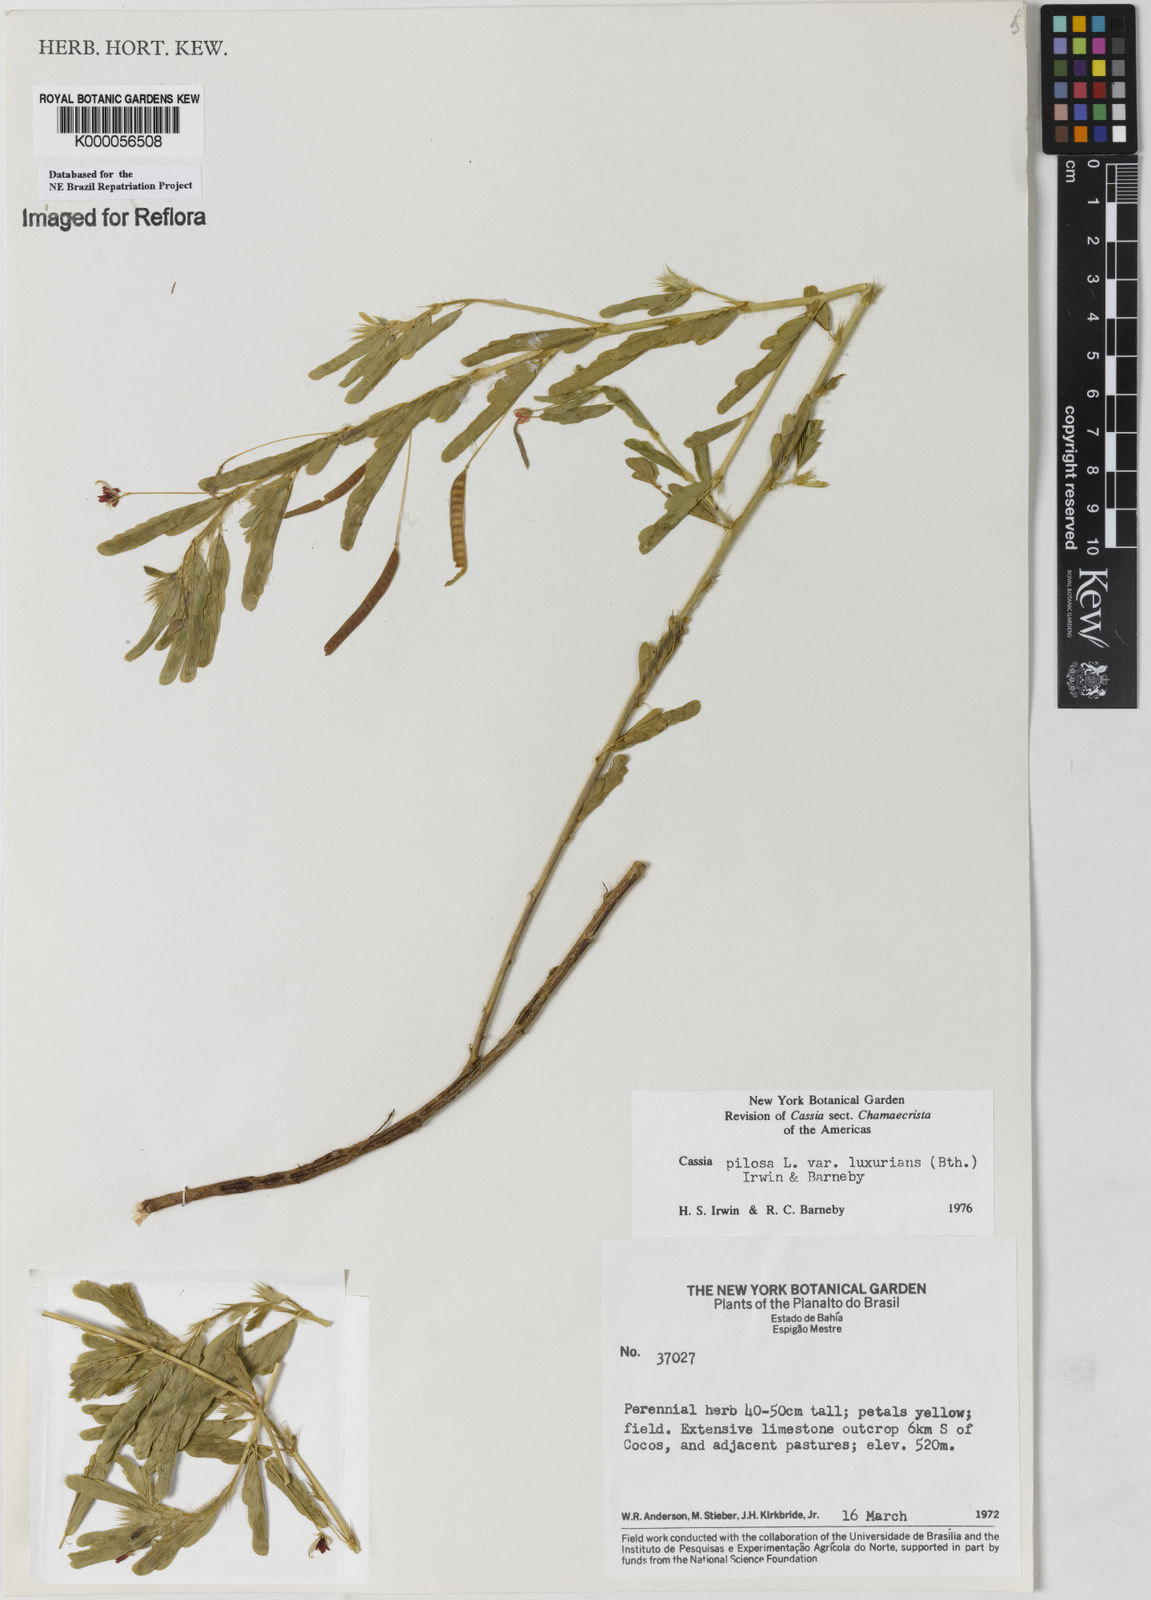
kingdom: Plantae
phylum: Tracheophyta
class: Magnoliopsida
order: Fabales
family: Fabaceae
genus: Chamaecrista
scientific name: Chamaecrista pilosa
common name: Hairy sensitive pea
